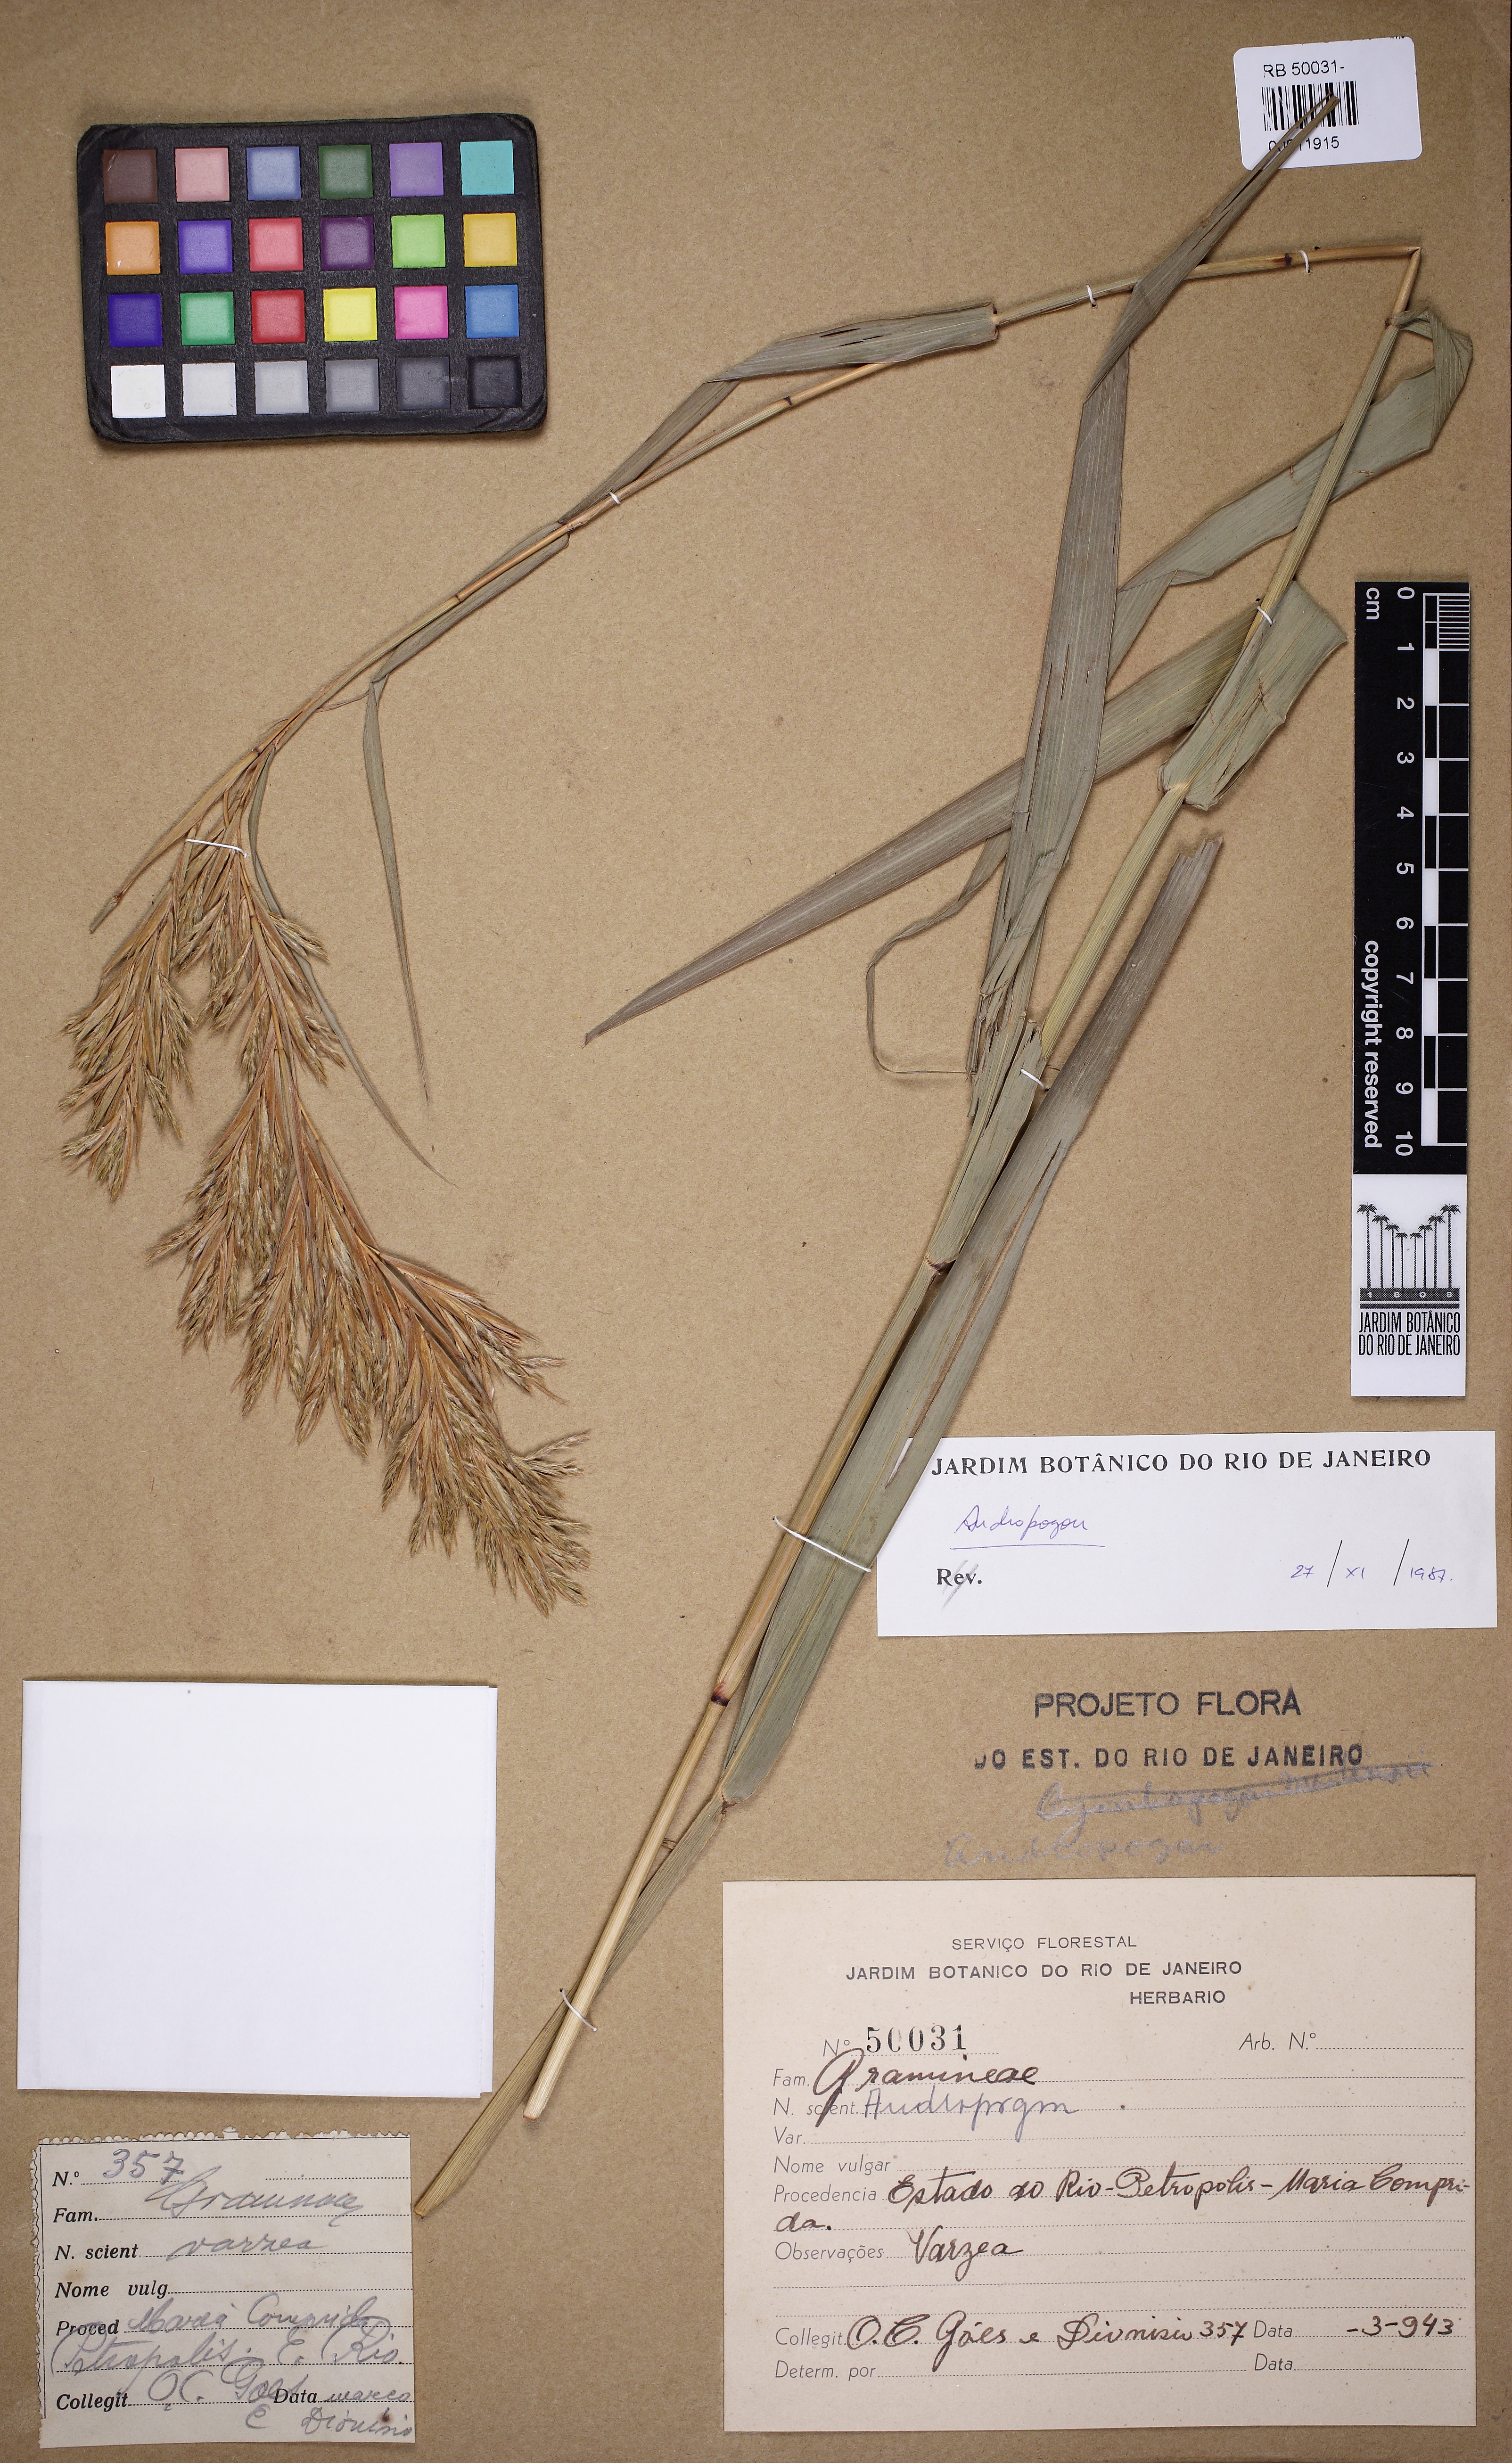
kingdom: Plantae
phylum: Tracheophyta
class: Liliopsida
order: Poales
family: Poaceae
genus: Andropogon
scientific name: Andropogon
